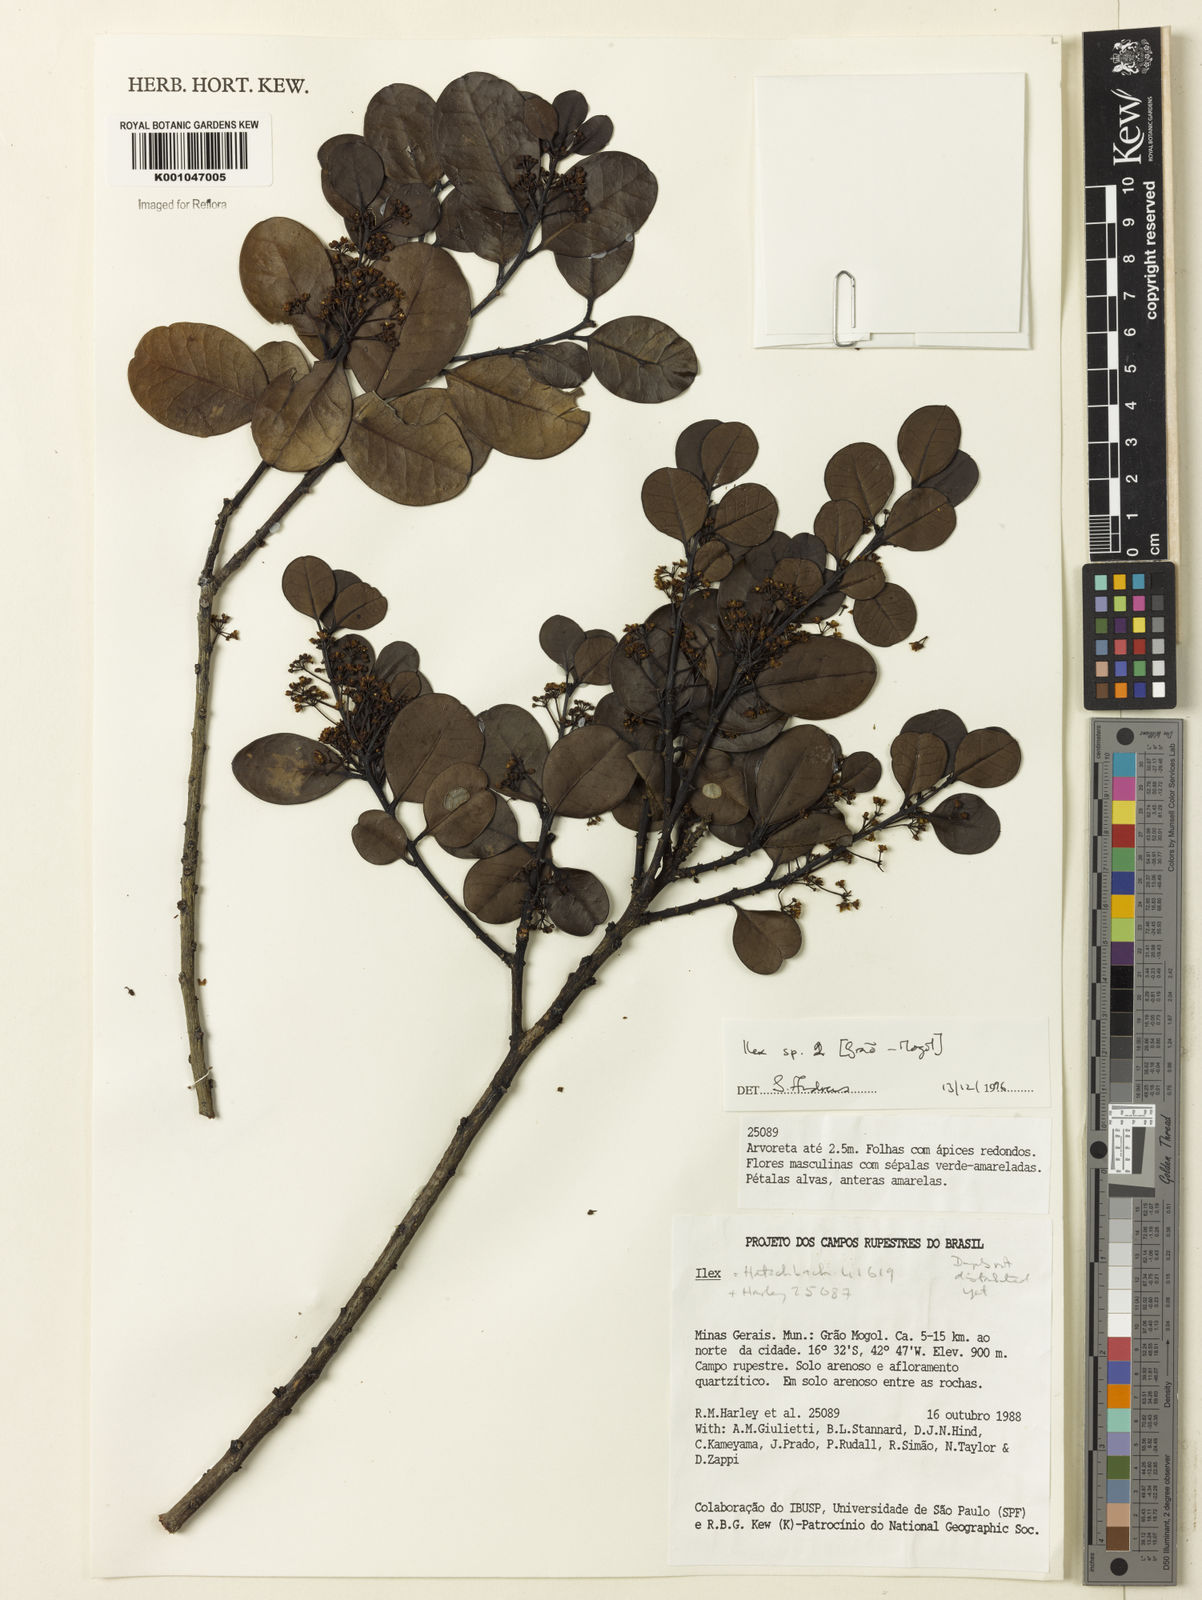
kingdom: Plantae
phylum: Tracheophyta
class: Magnoliopsida
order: Aquifoliales
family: Aquifoliaceae
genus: Ilex
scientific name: Ilex
